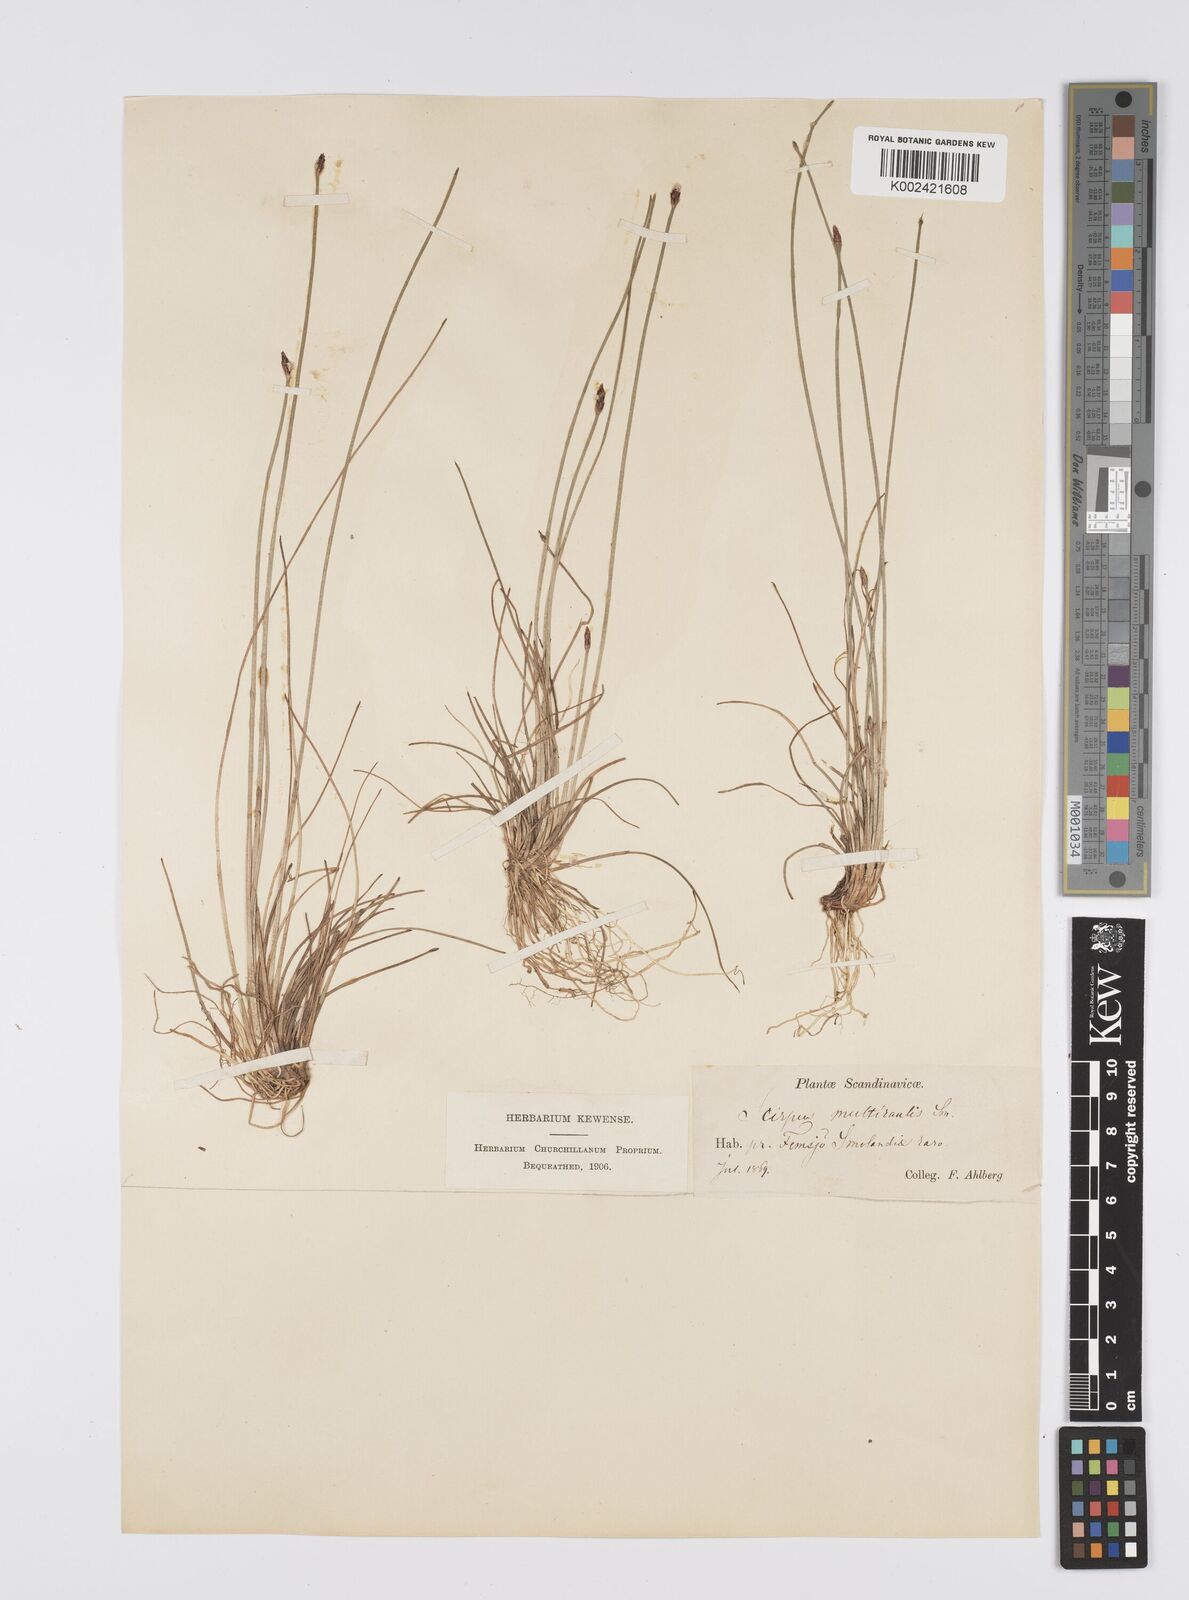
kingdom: Plantae
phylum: Tracheophyta
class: Liliopsida
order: Poales
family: Cyperaceae
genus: Eleocharis
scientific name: Eleocharis multicaulis
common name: Many-stalked spike-rush
